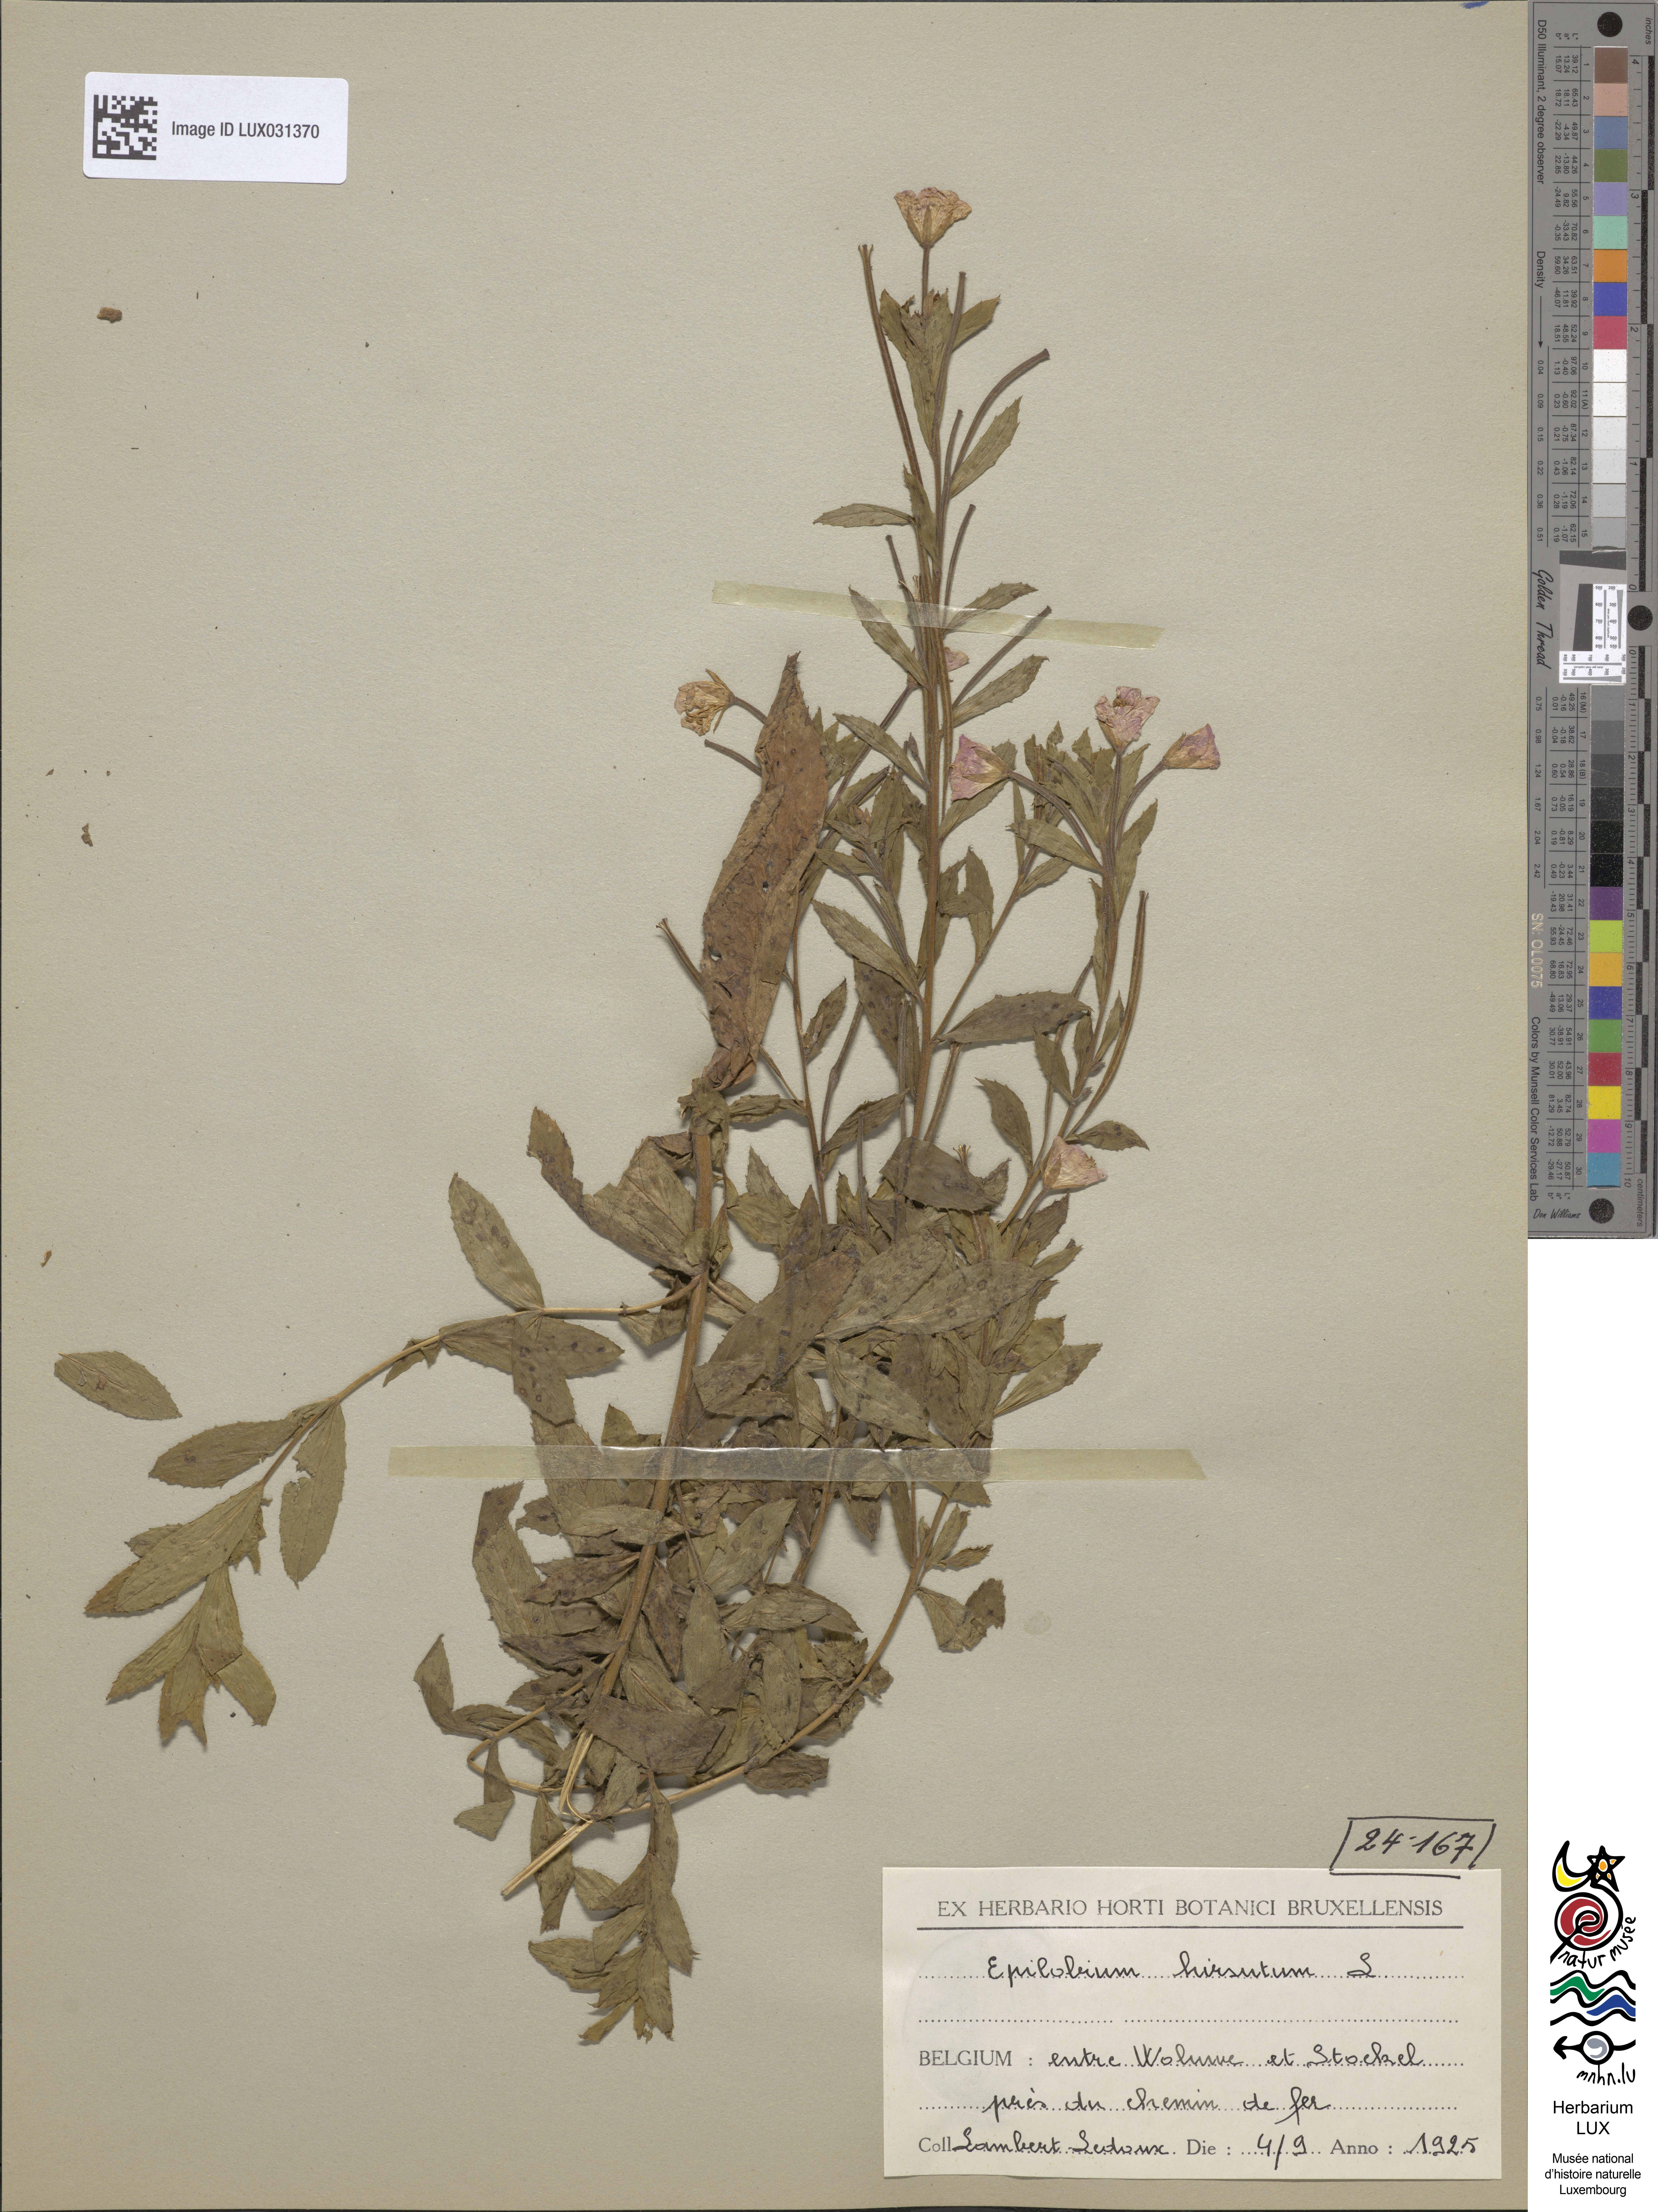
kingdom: Plantae
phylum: Tracheophyta
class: Magnoliopsida
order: Myrtales
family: Onagraceae
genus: Epilobium
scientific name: Epilobium hirsutum
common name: Great willowherb
